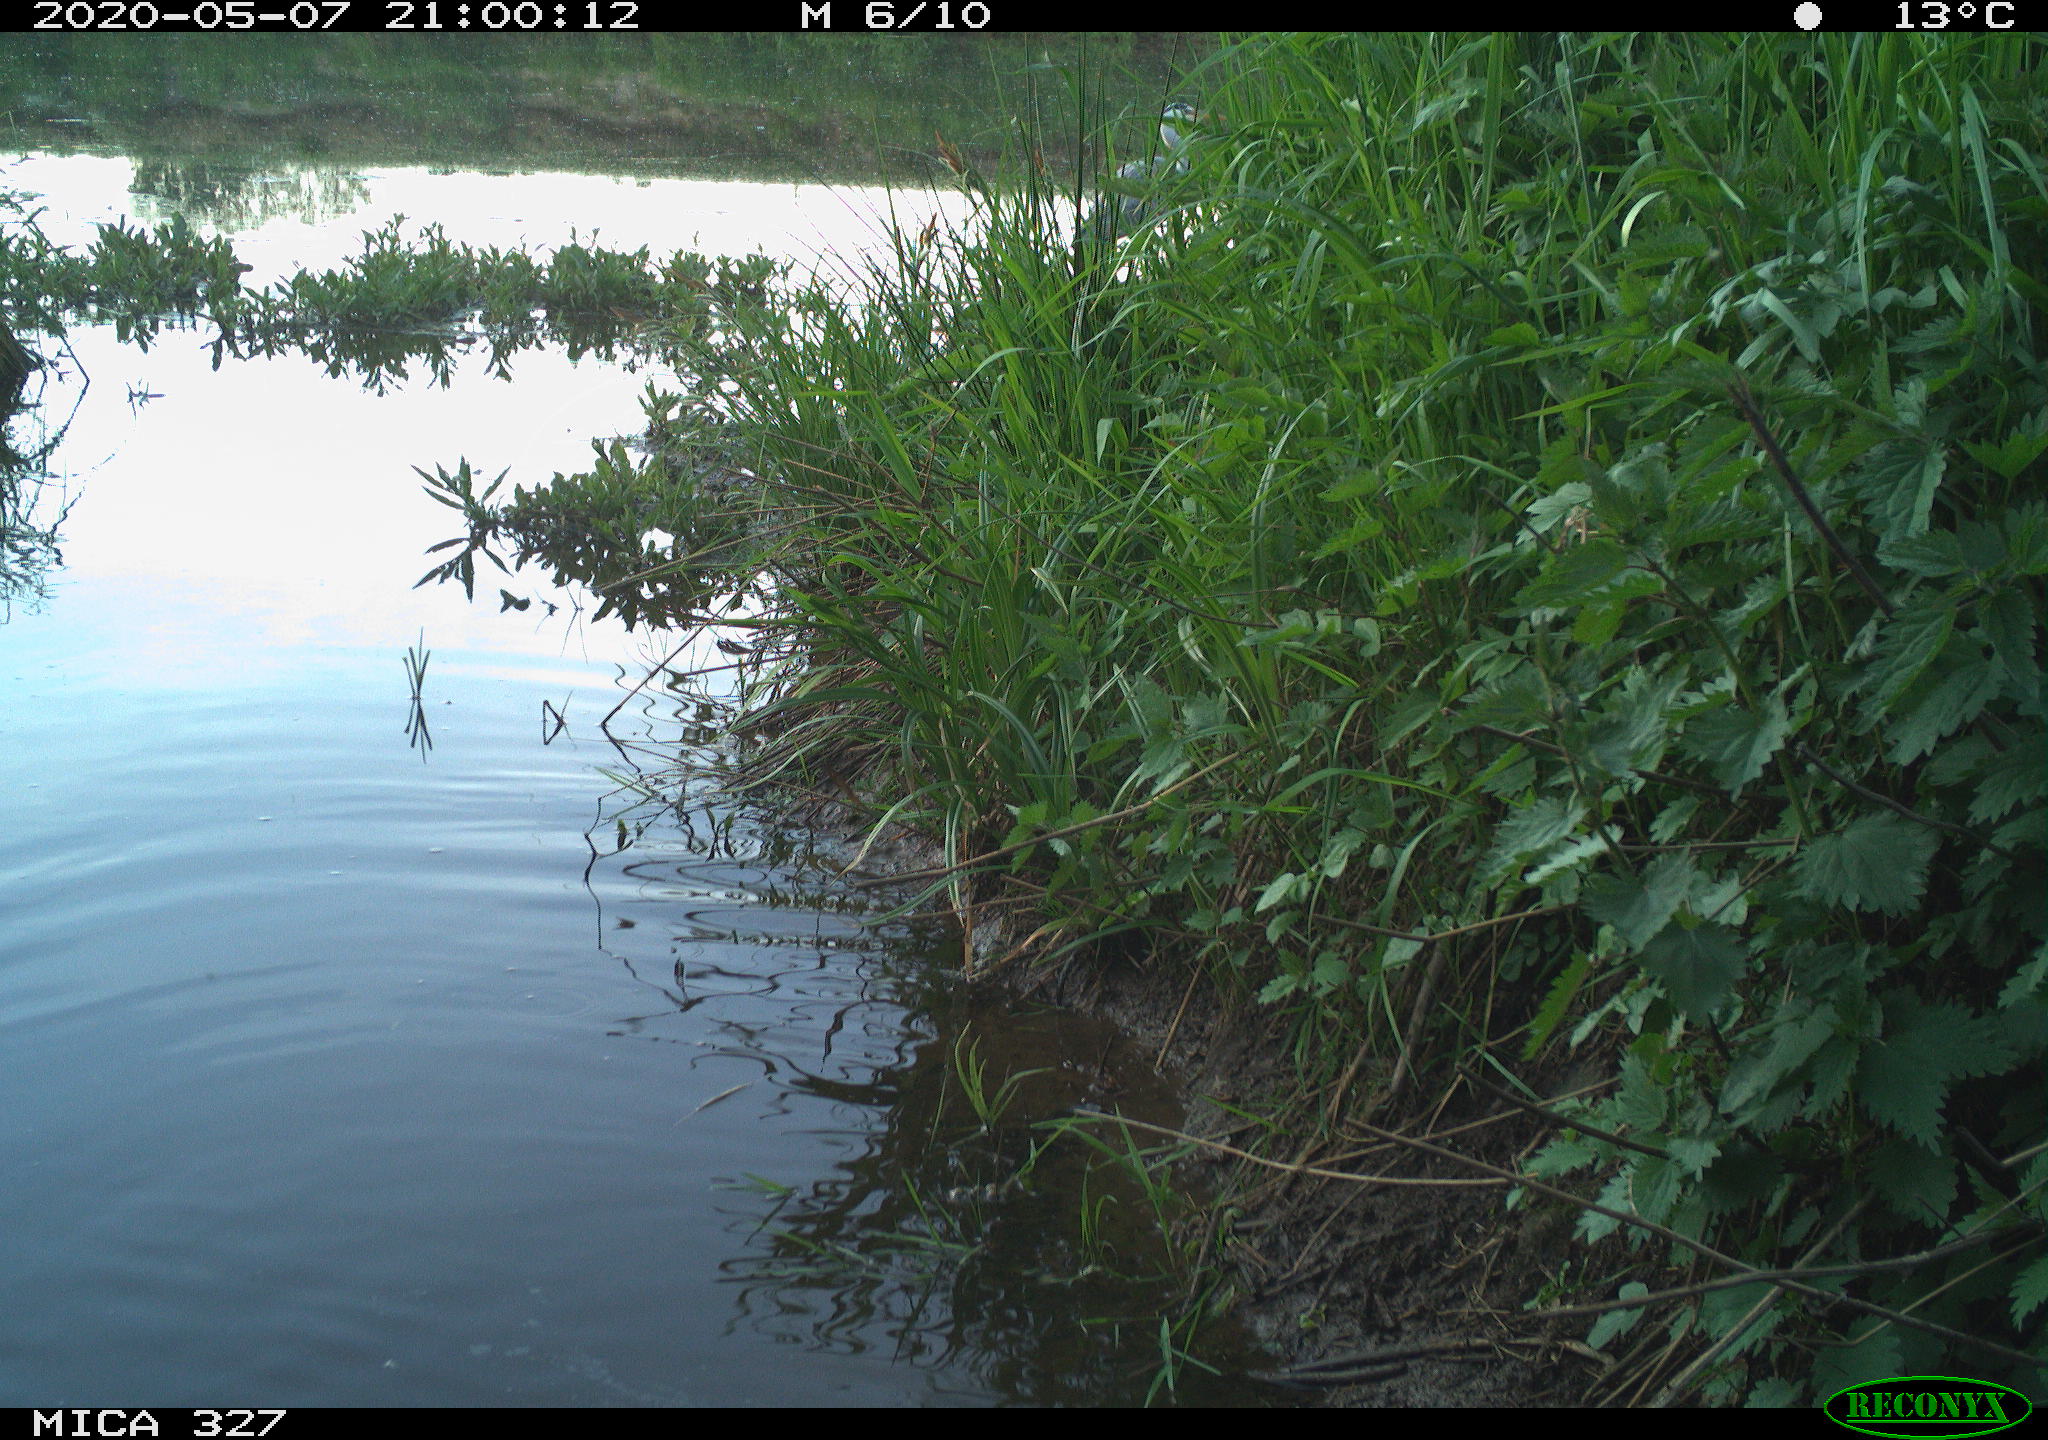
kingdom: Animalia
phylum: Chordata
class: Aves
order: Pelecaniformes
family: Ardeidae
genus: Ardea
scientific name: Ardea cinerea
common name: Grey heron
